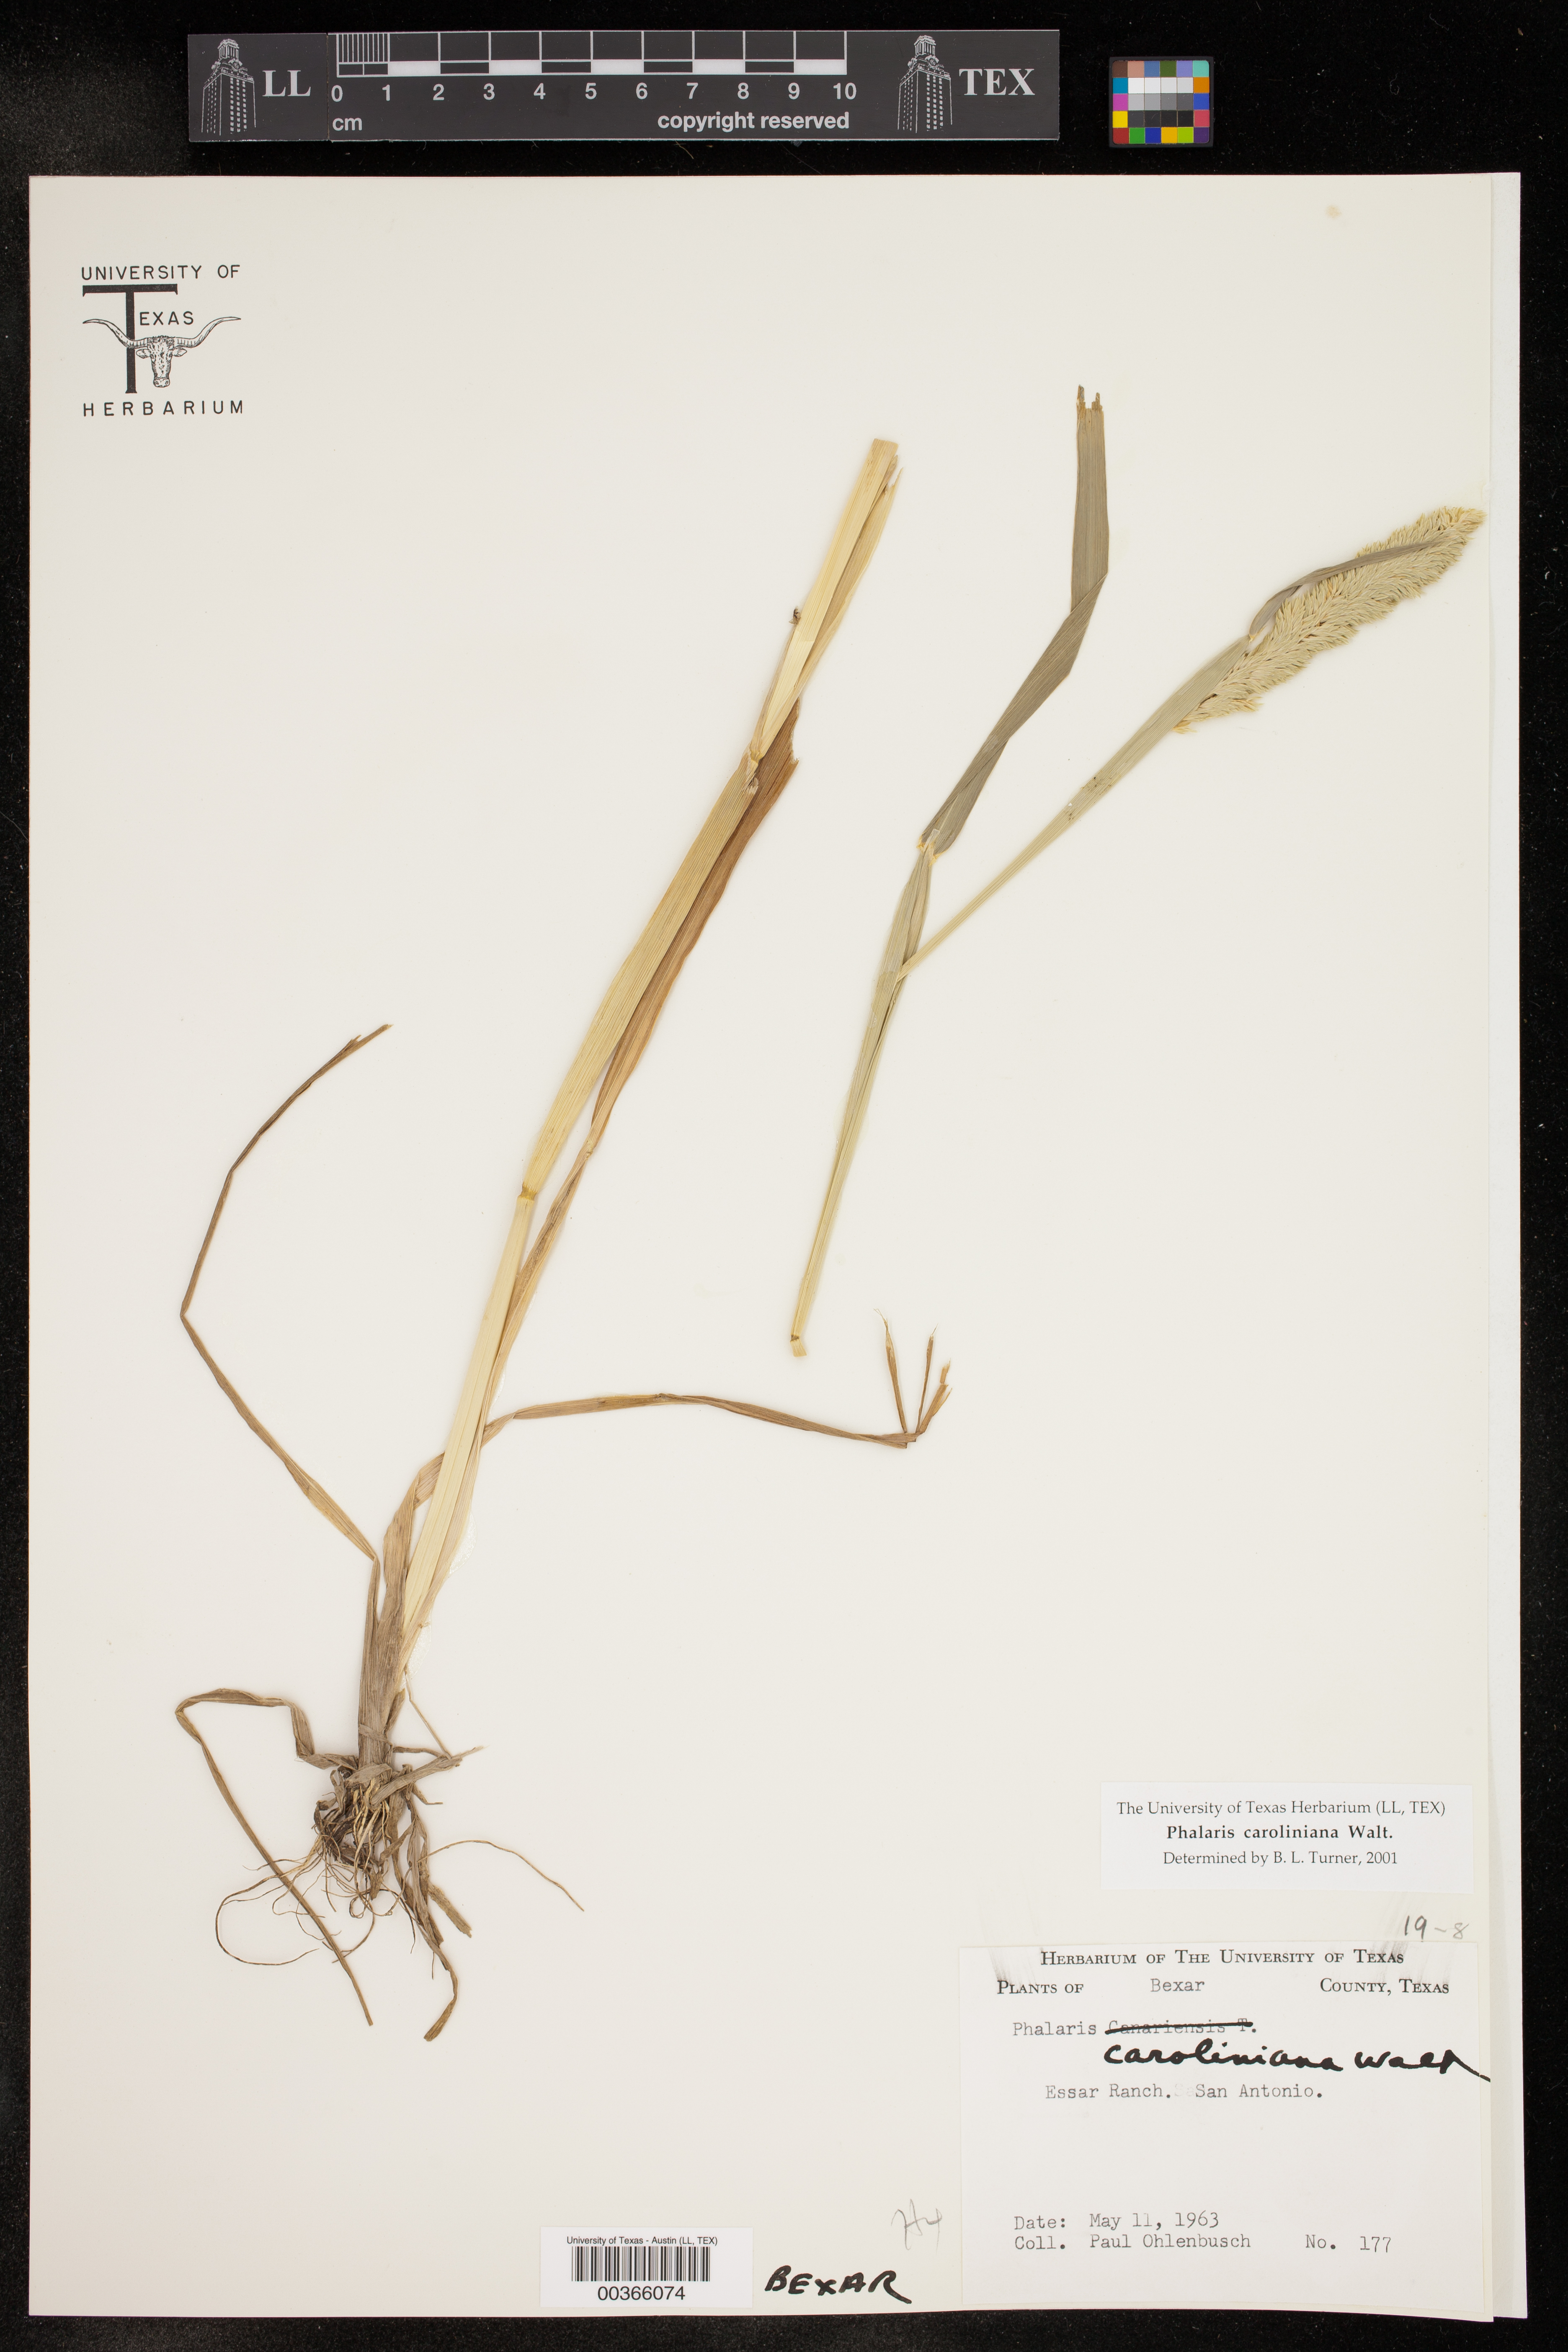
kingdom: Plantae
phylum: Tracheophyta
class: Liliopsida
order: Poales
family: Poaceae
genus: Phalaris
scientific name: Phalaris caroliniana
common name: May grass
